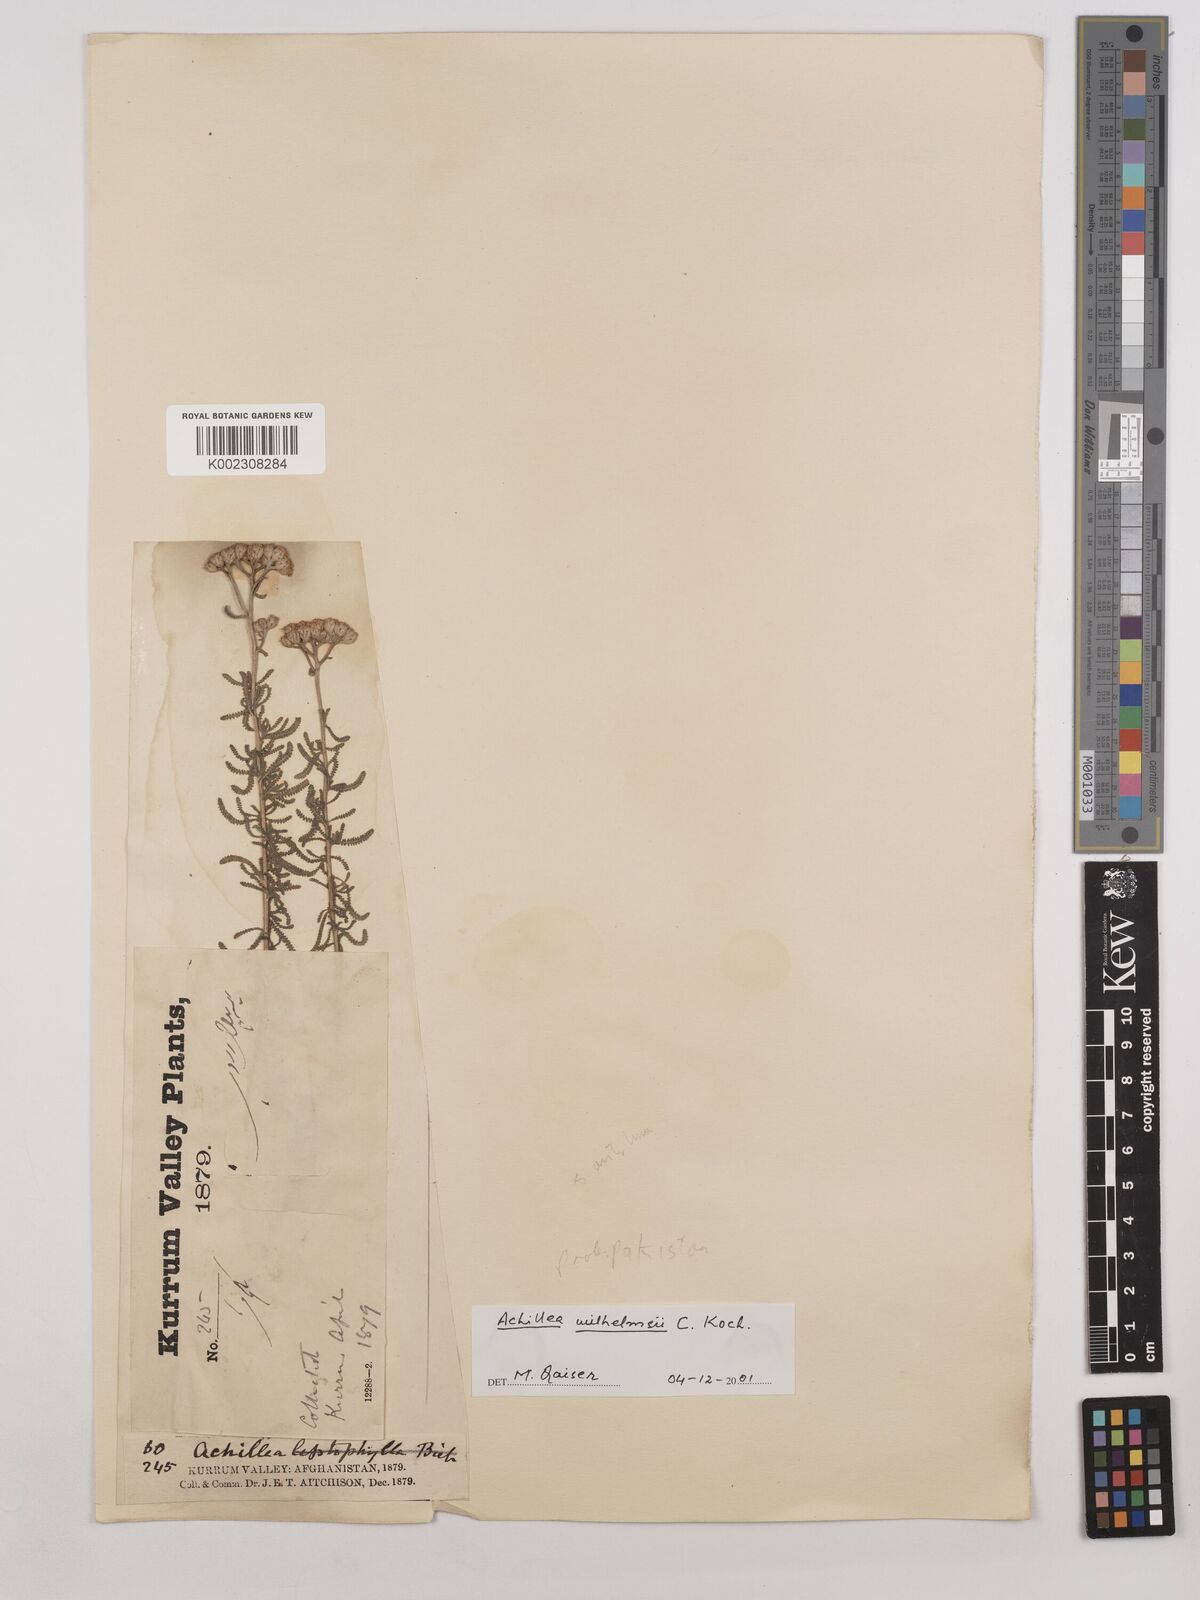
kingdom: Plantae
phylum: Tracheophyta
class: Magnoliopsida
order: Asterales
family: Asteraceae
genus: Achillea
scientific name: Achillea millefolium
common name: Yarrow
